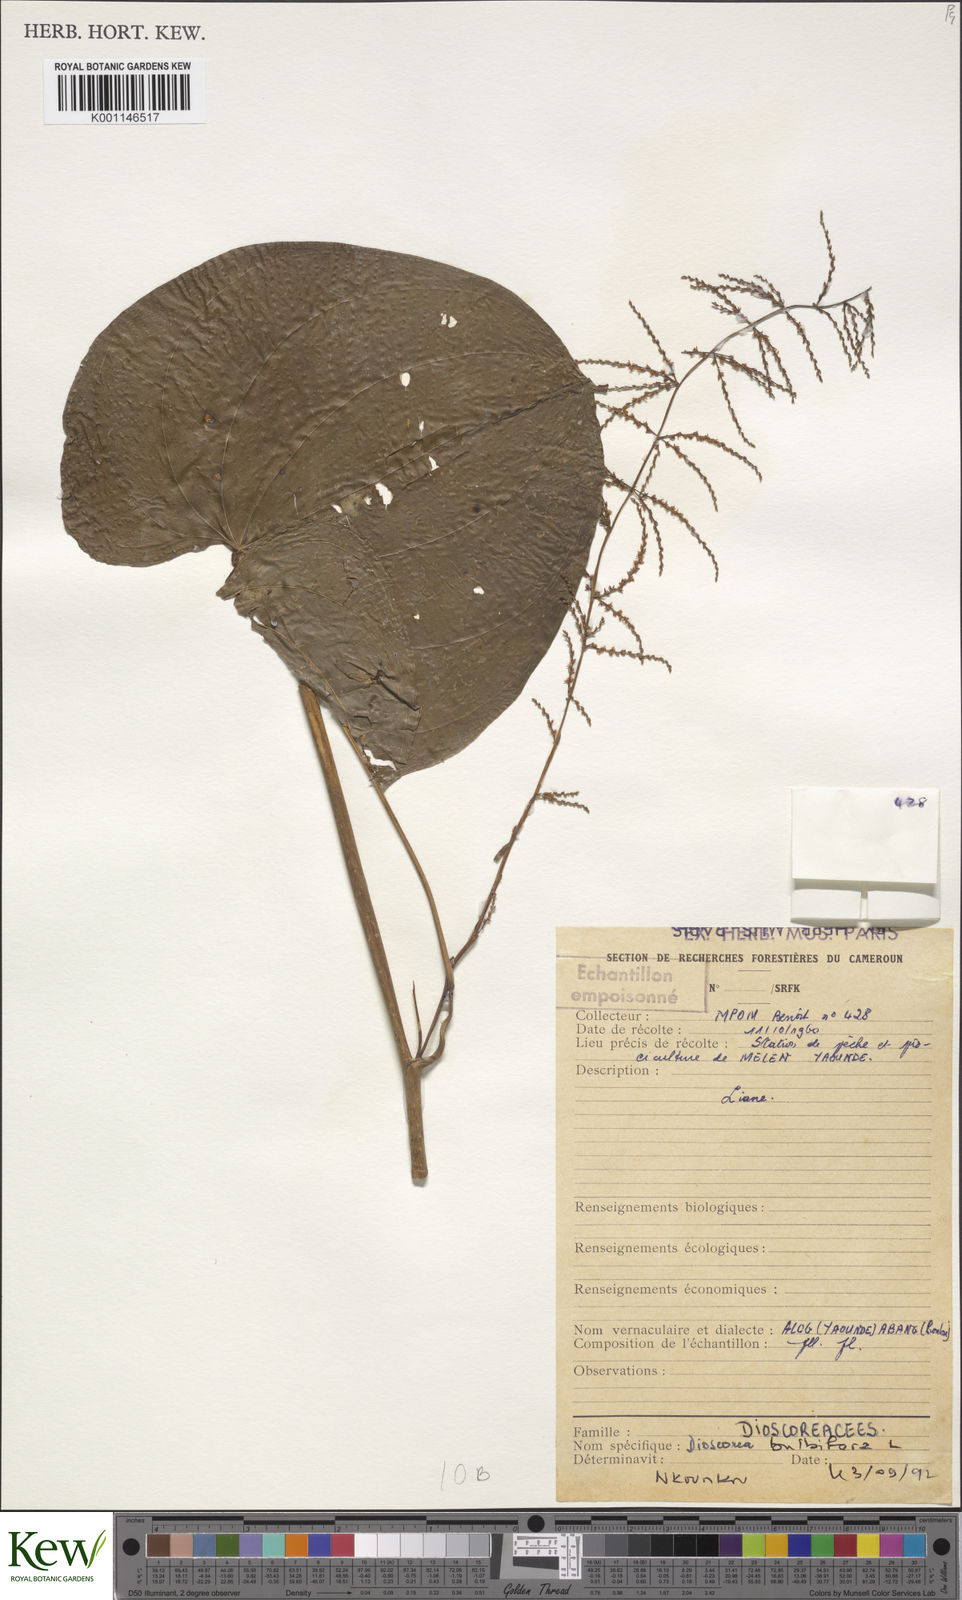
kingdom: Plantae
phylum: Tracheophyta
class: Liliopsida
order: Dioscoreales
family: Dioscoreaceae
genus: Dioscorea
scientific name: Dioscorea
